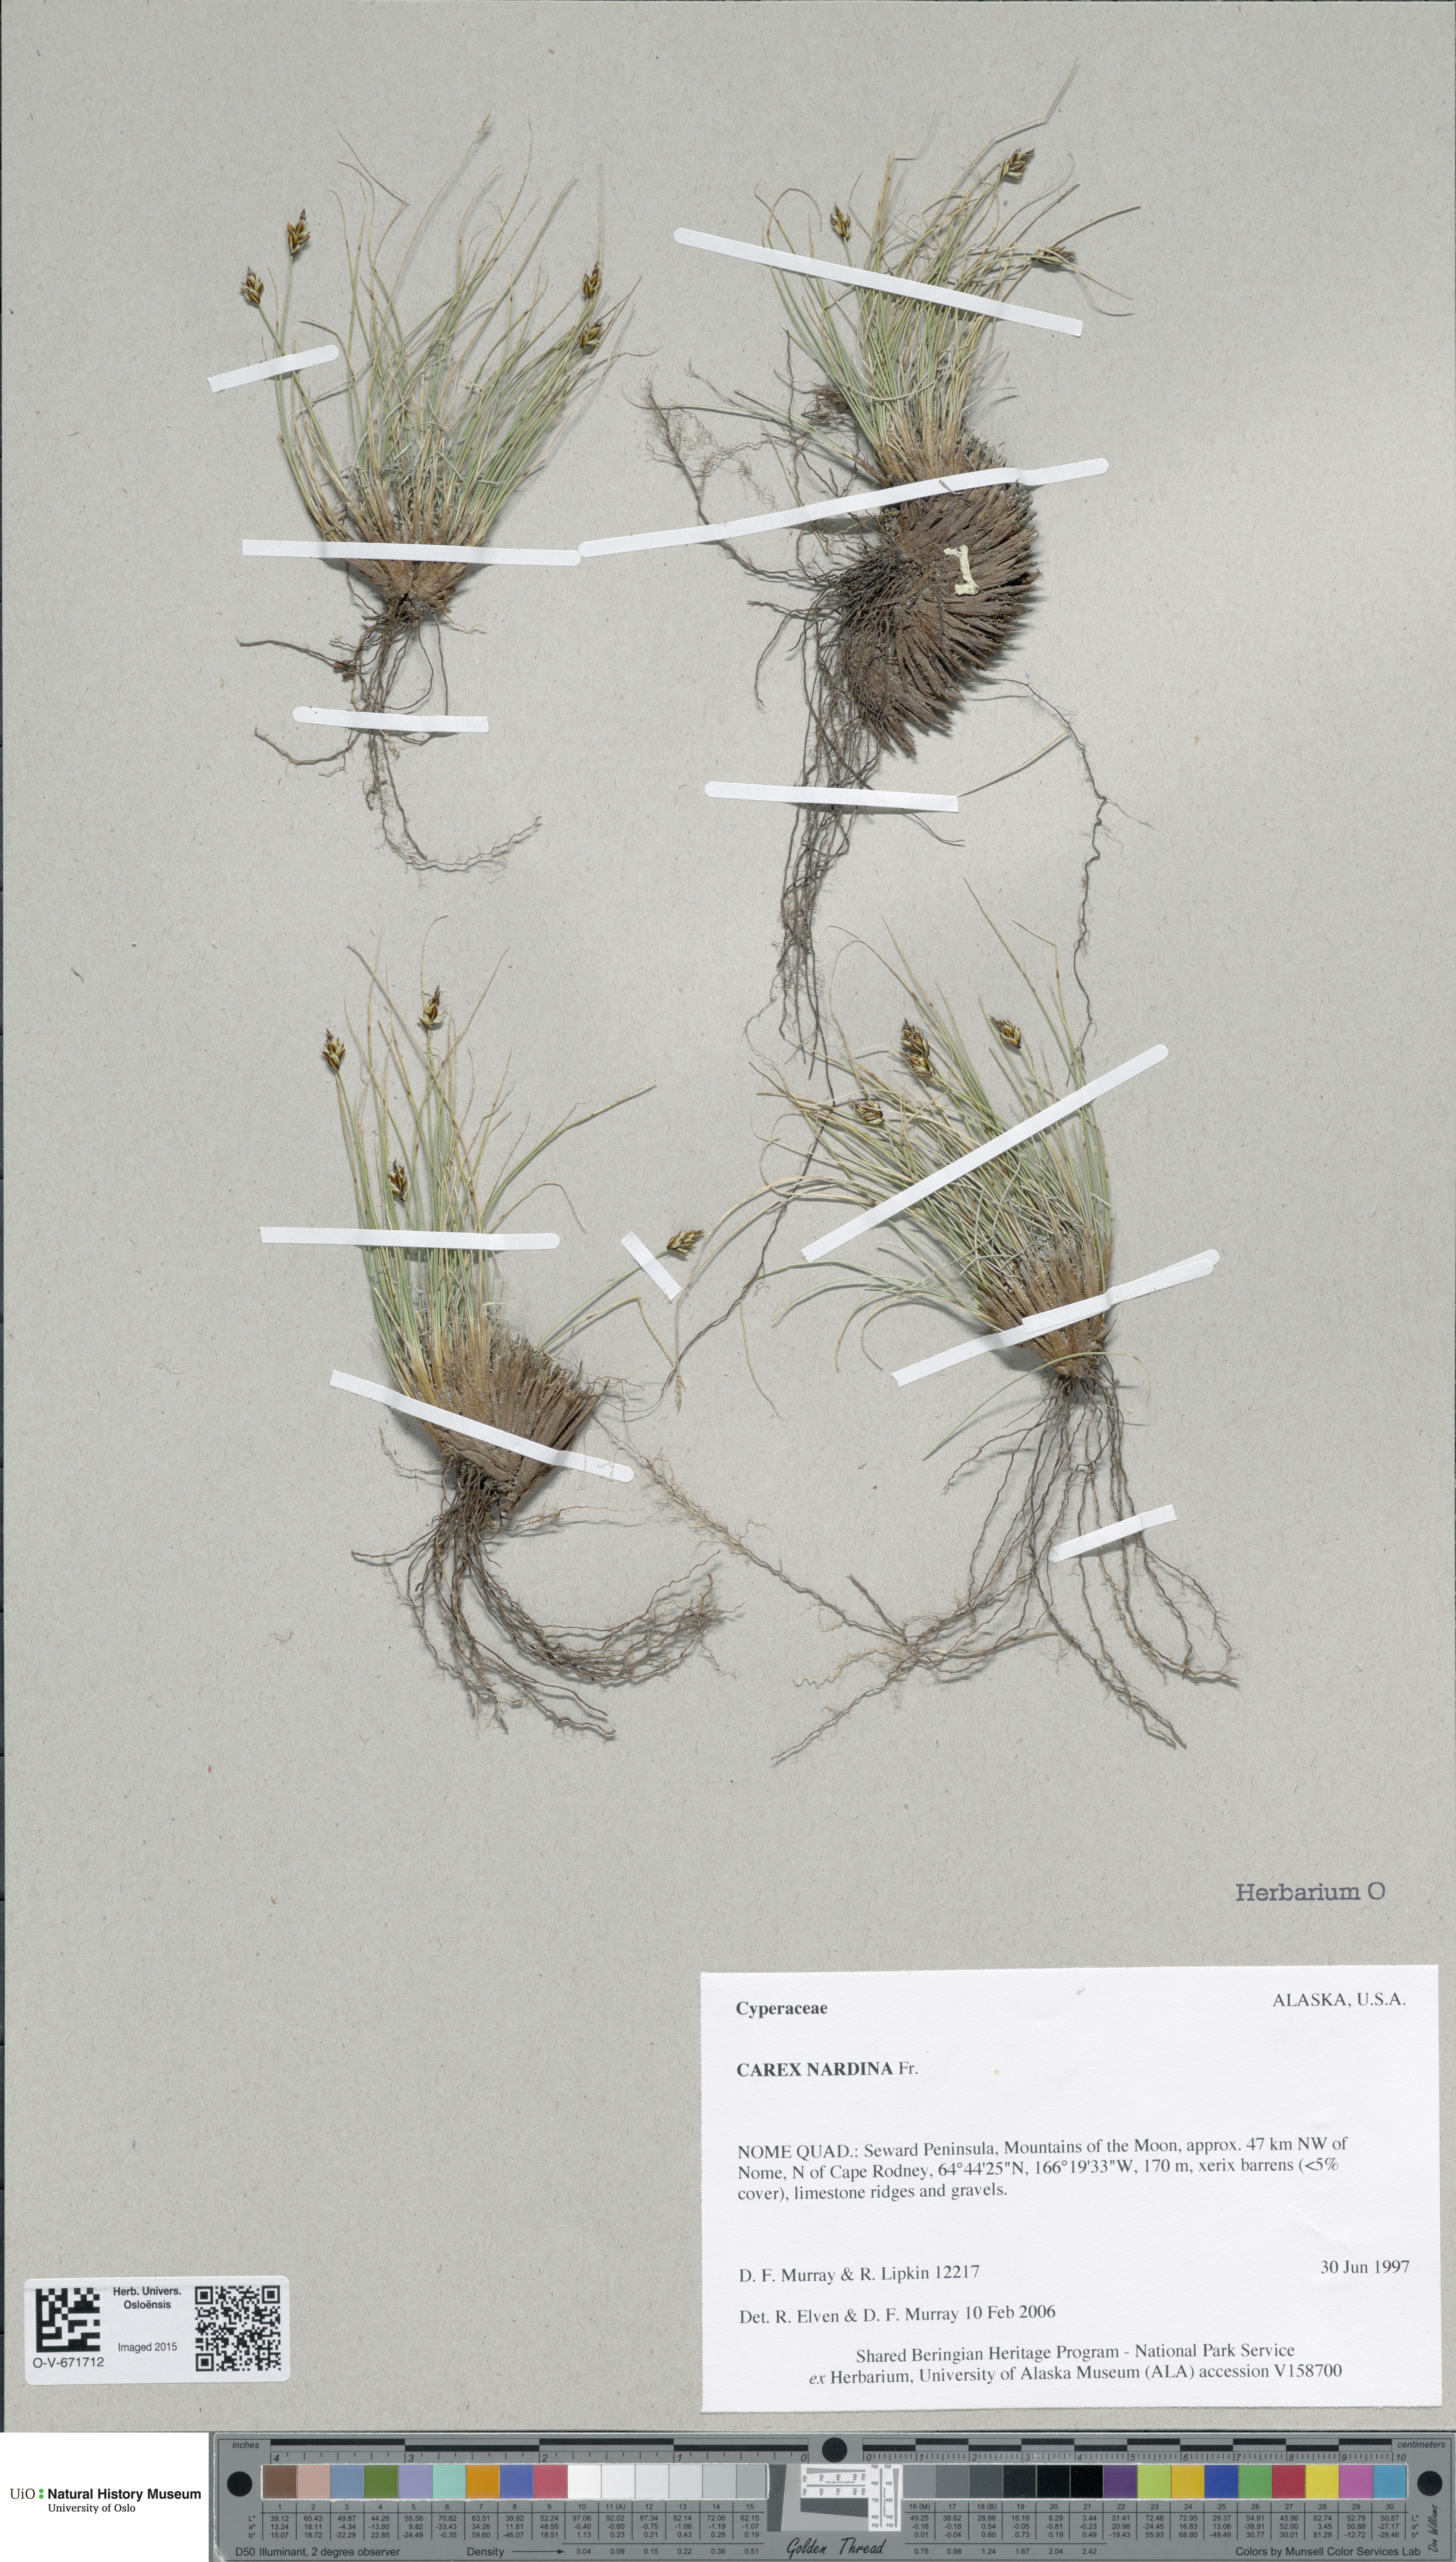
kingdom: Plantae
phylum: Tracheophyta
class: Liliopsida
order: Poales
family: Cyperaceae
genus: Carex
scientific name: Carex nardina
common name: Nard sedge
